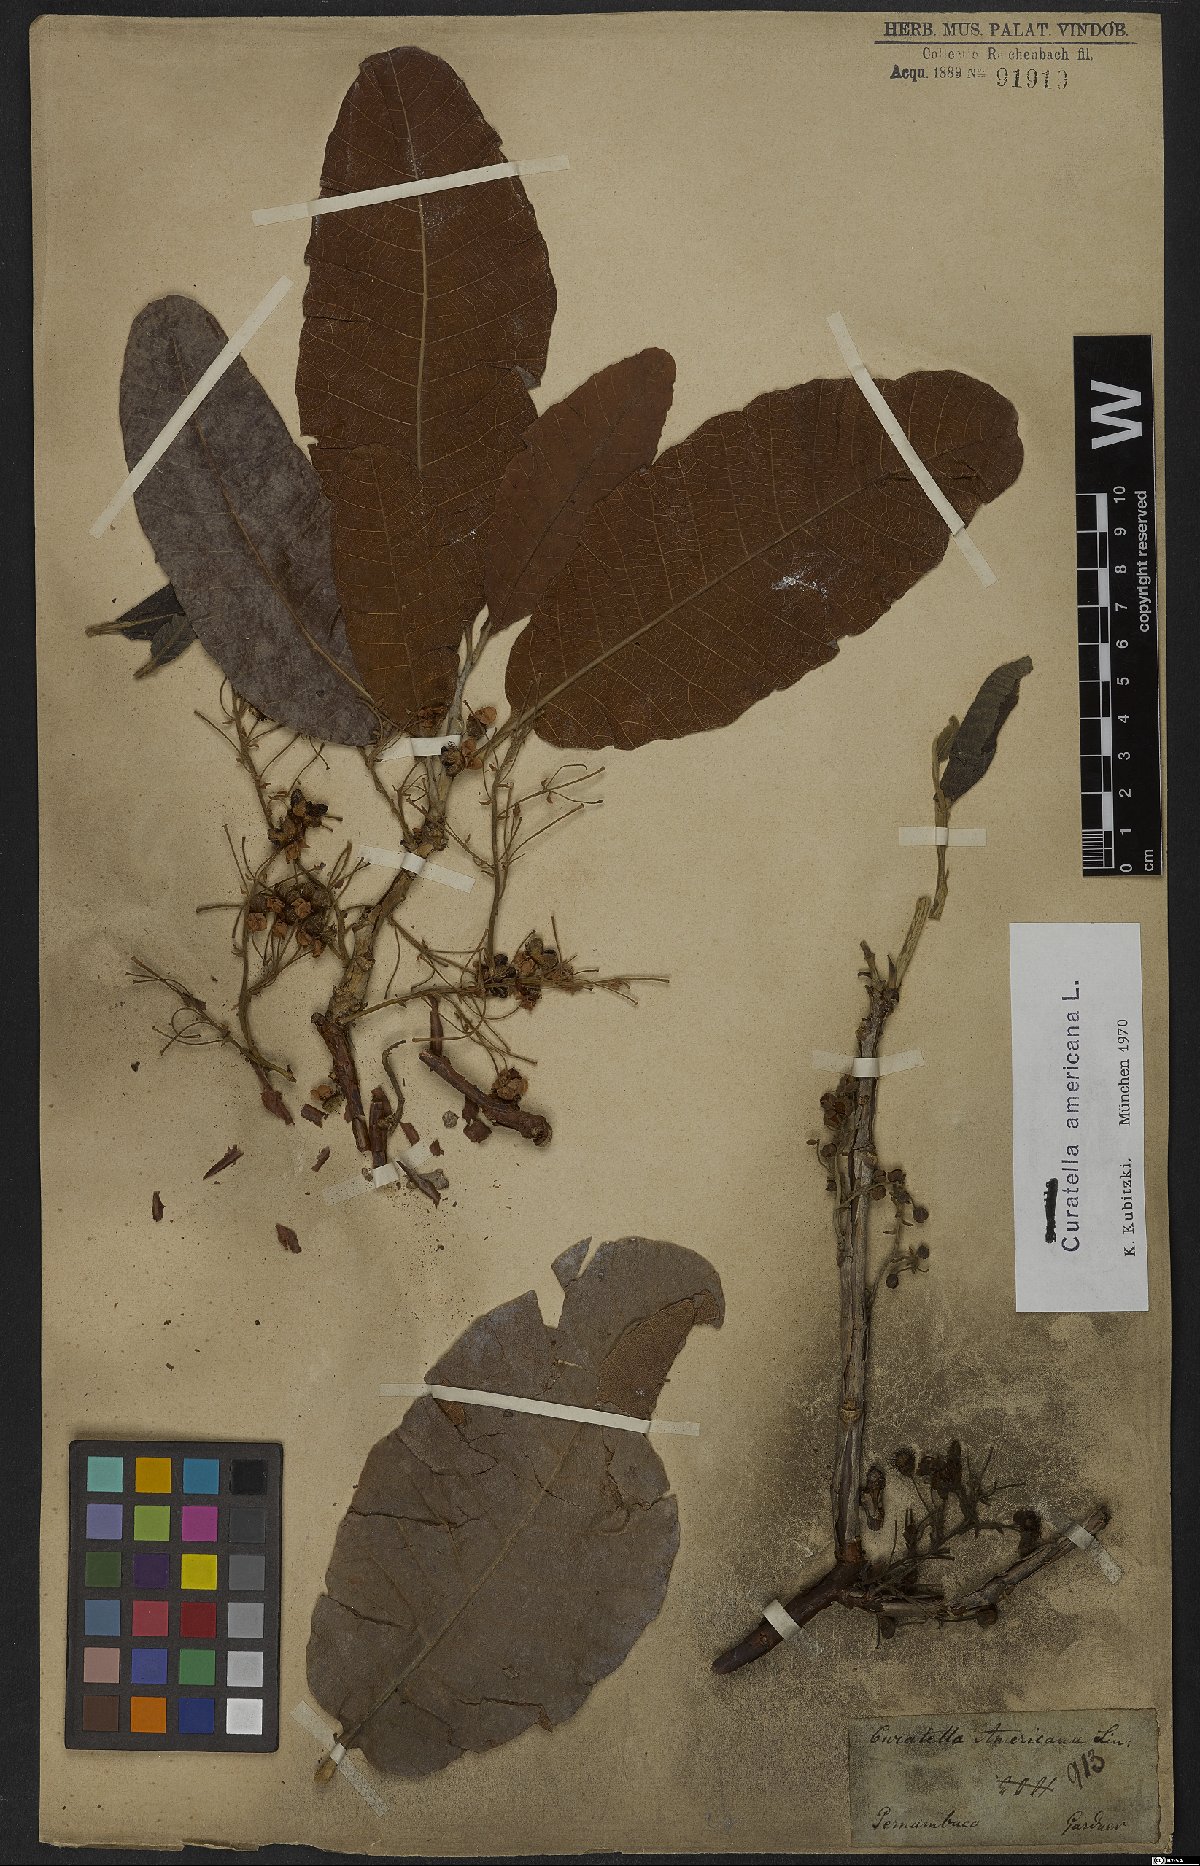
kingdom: Plantae
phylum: Tracheophyta
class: Magnoliopsida
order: Dilleniales
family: Dilleniaceae
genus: Curatella
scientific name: Curatella americana
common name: Sandpaper tree
